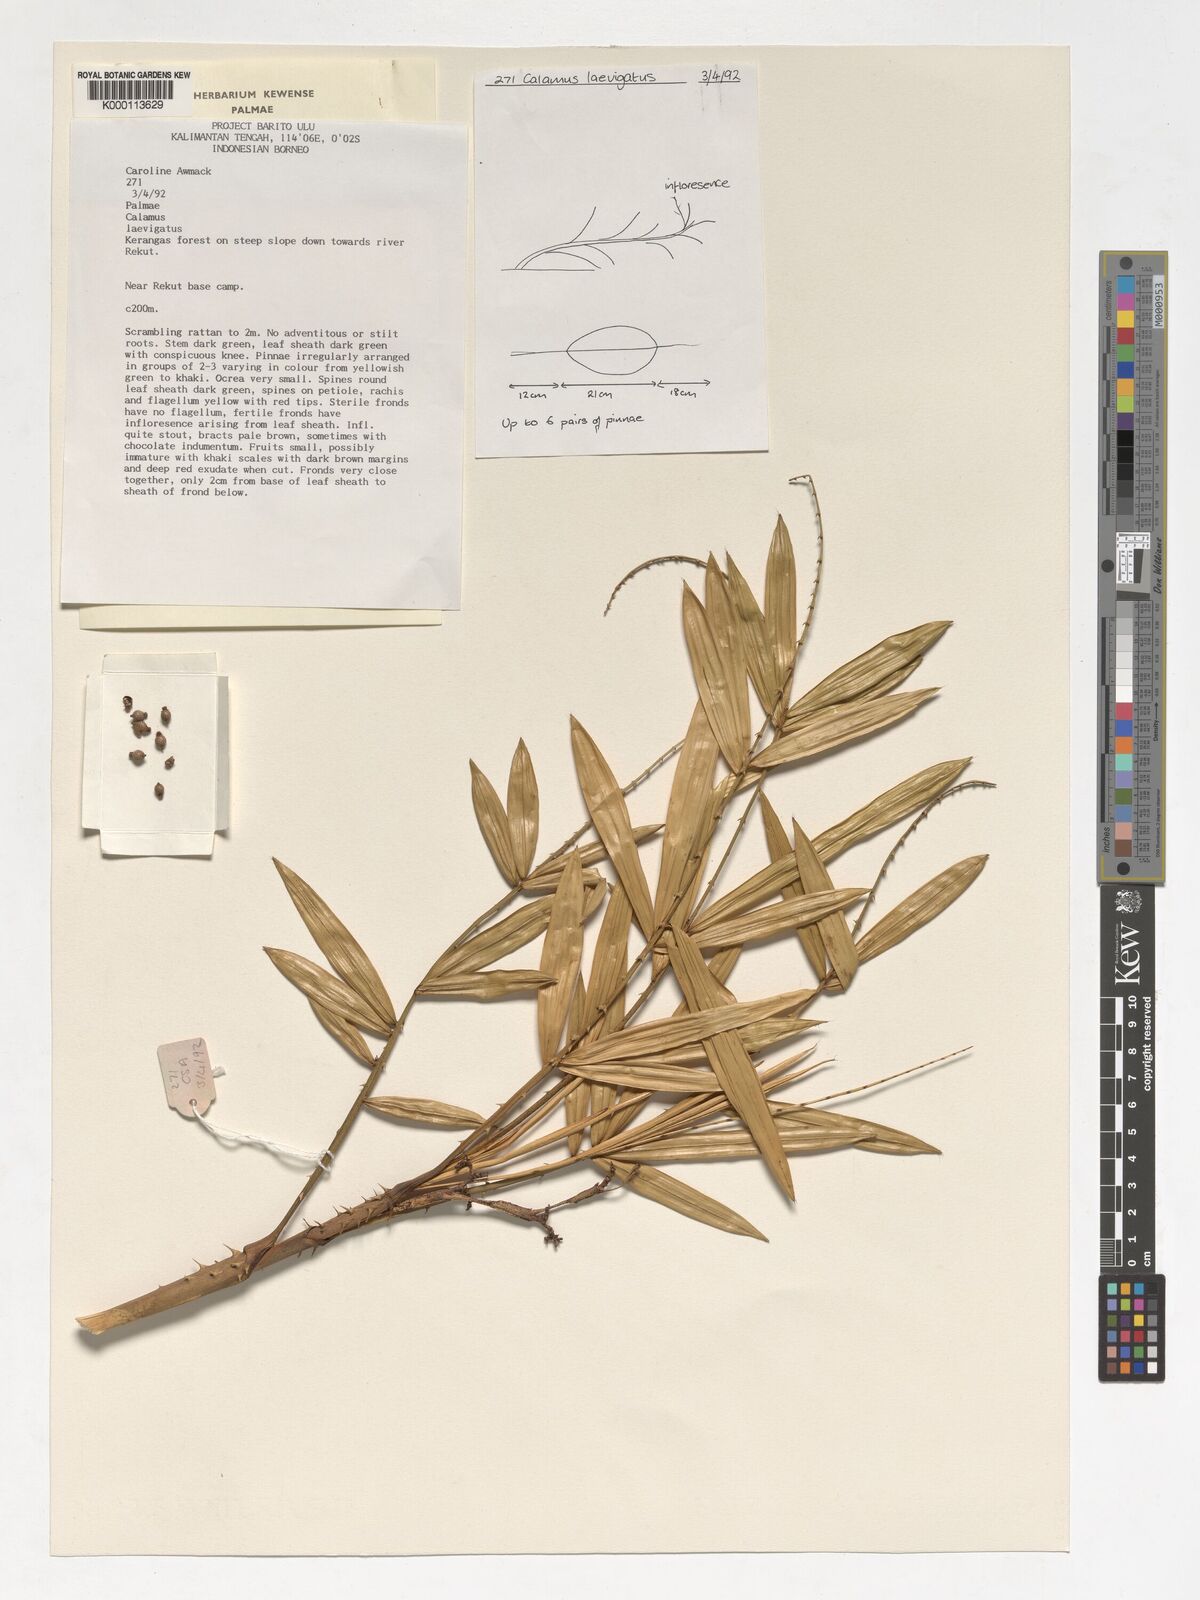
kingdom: Plantae
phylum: Tracheophyta
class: Liliopsida
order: Arecales
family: Arecaceae
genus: Calamus
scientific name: Calamus
